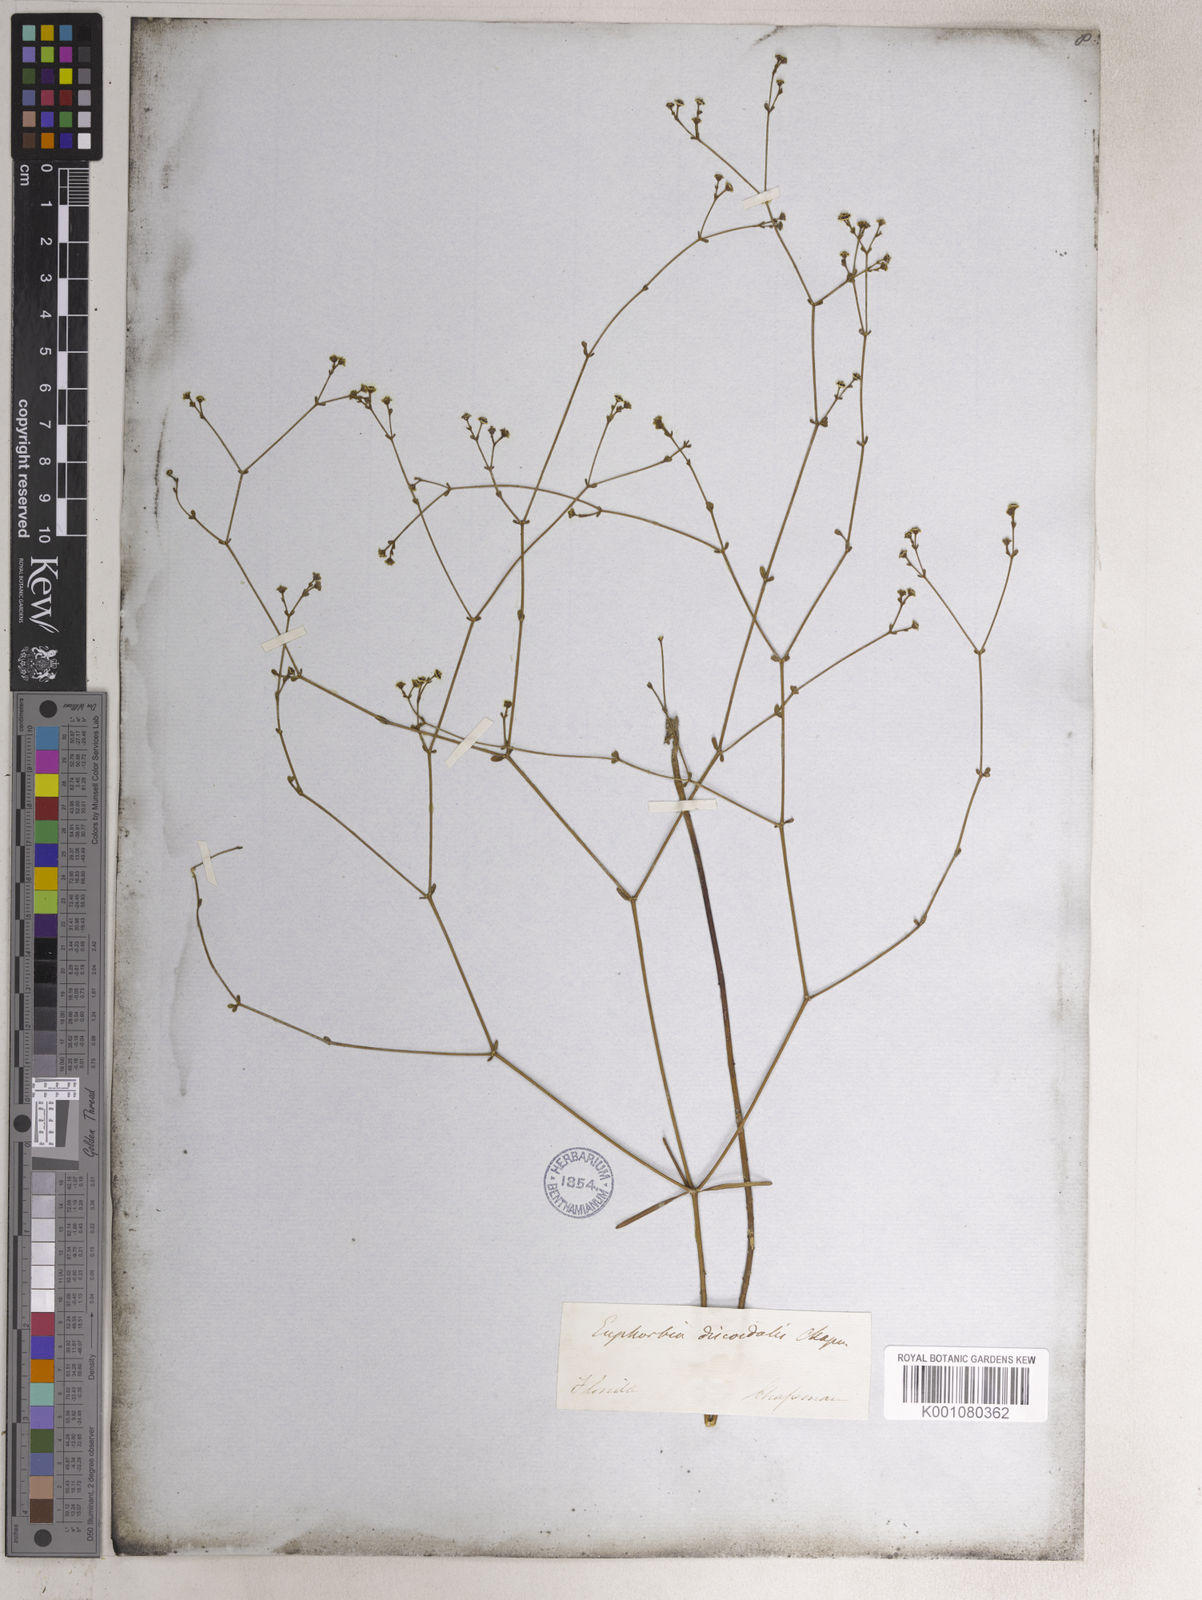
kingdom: Plantae
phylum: Tracheophyta
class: Magnoliopsida
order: Malpighiales
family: Euphorbiaceae
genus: Euphorbia
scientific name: Euphorbia discoidalis
